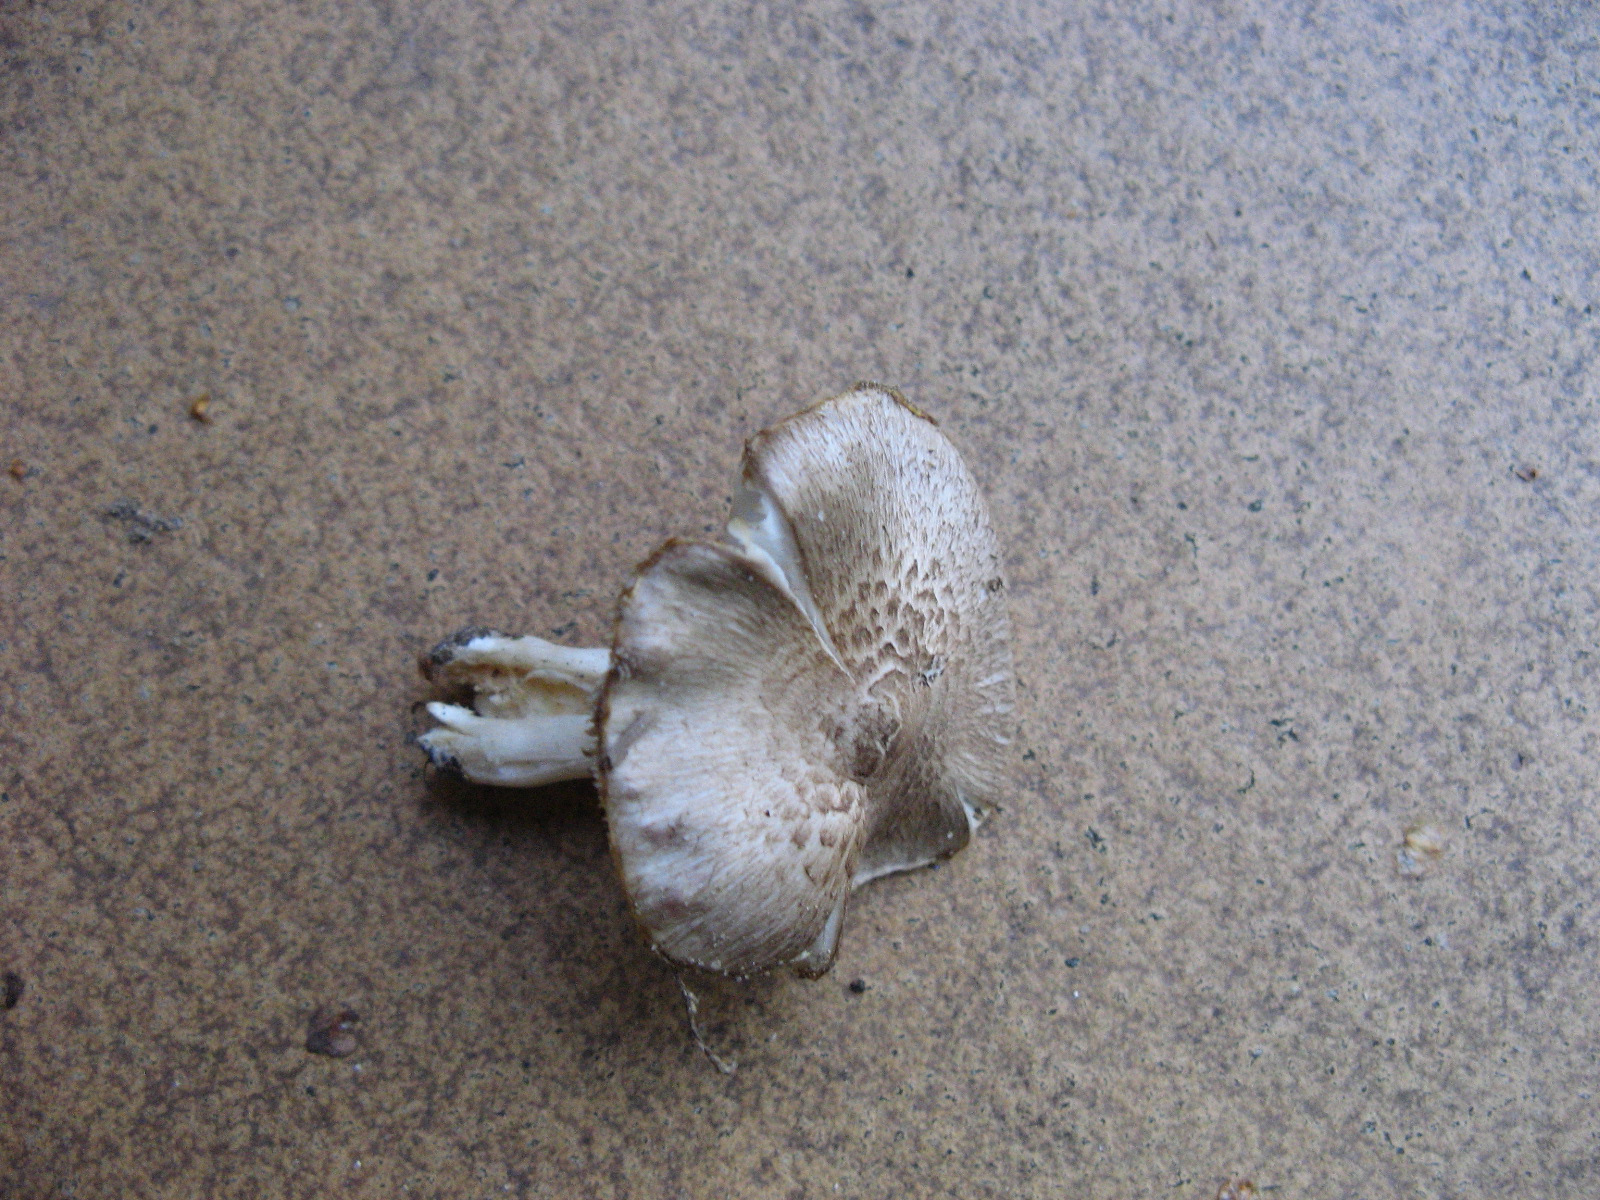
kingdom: Fungi
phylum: Basidiomycota
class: Agaricomycetes
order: Agaricales
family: Tricholomataceae
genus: Tricholoma
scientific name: Tricholoma scalpturatum
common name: gulplettet ridderhat
